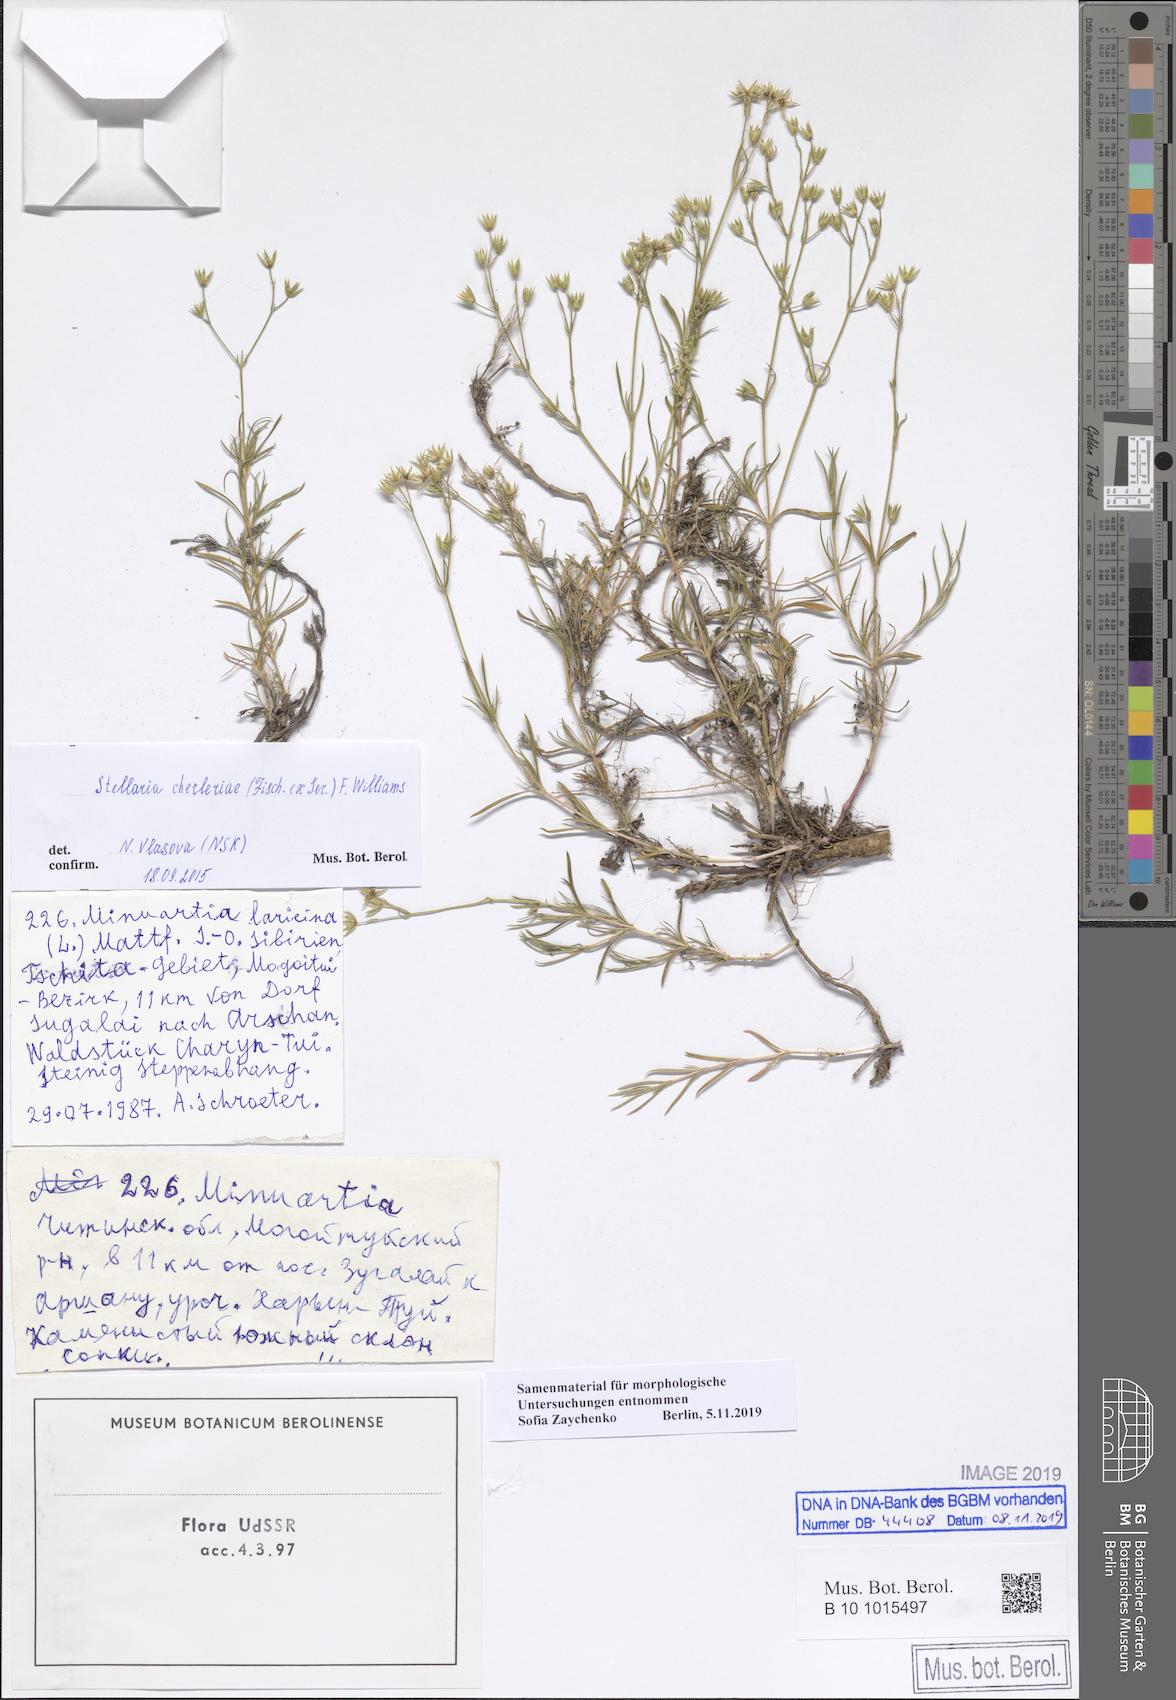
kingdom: Plantae
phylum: Tracheophyta
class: Magnoliopsida
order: Caryophyllales
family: Caryophyllaceae
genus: Adenonema
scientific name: Adenonema cherleriae
